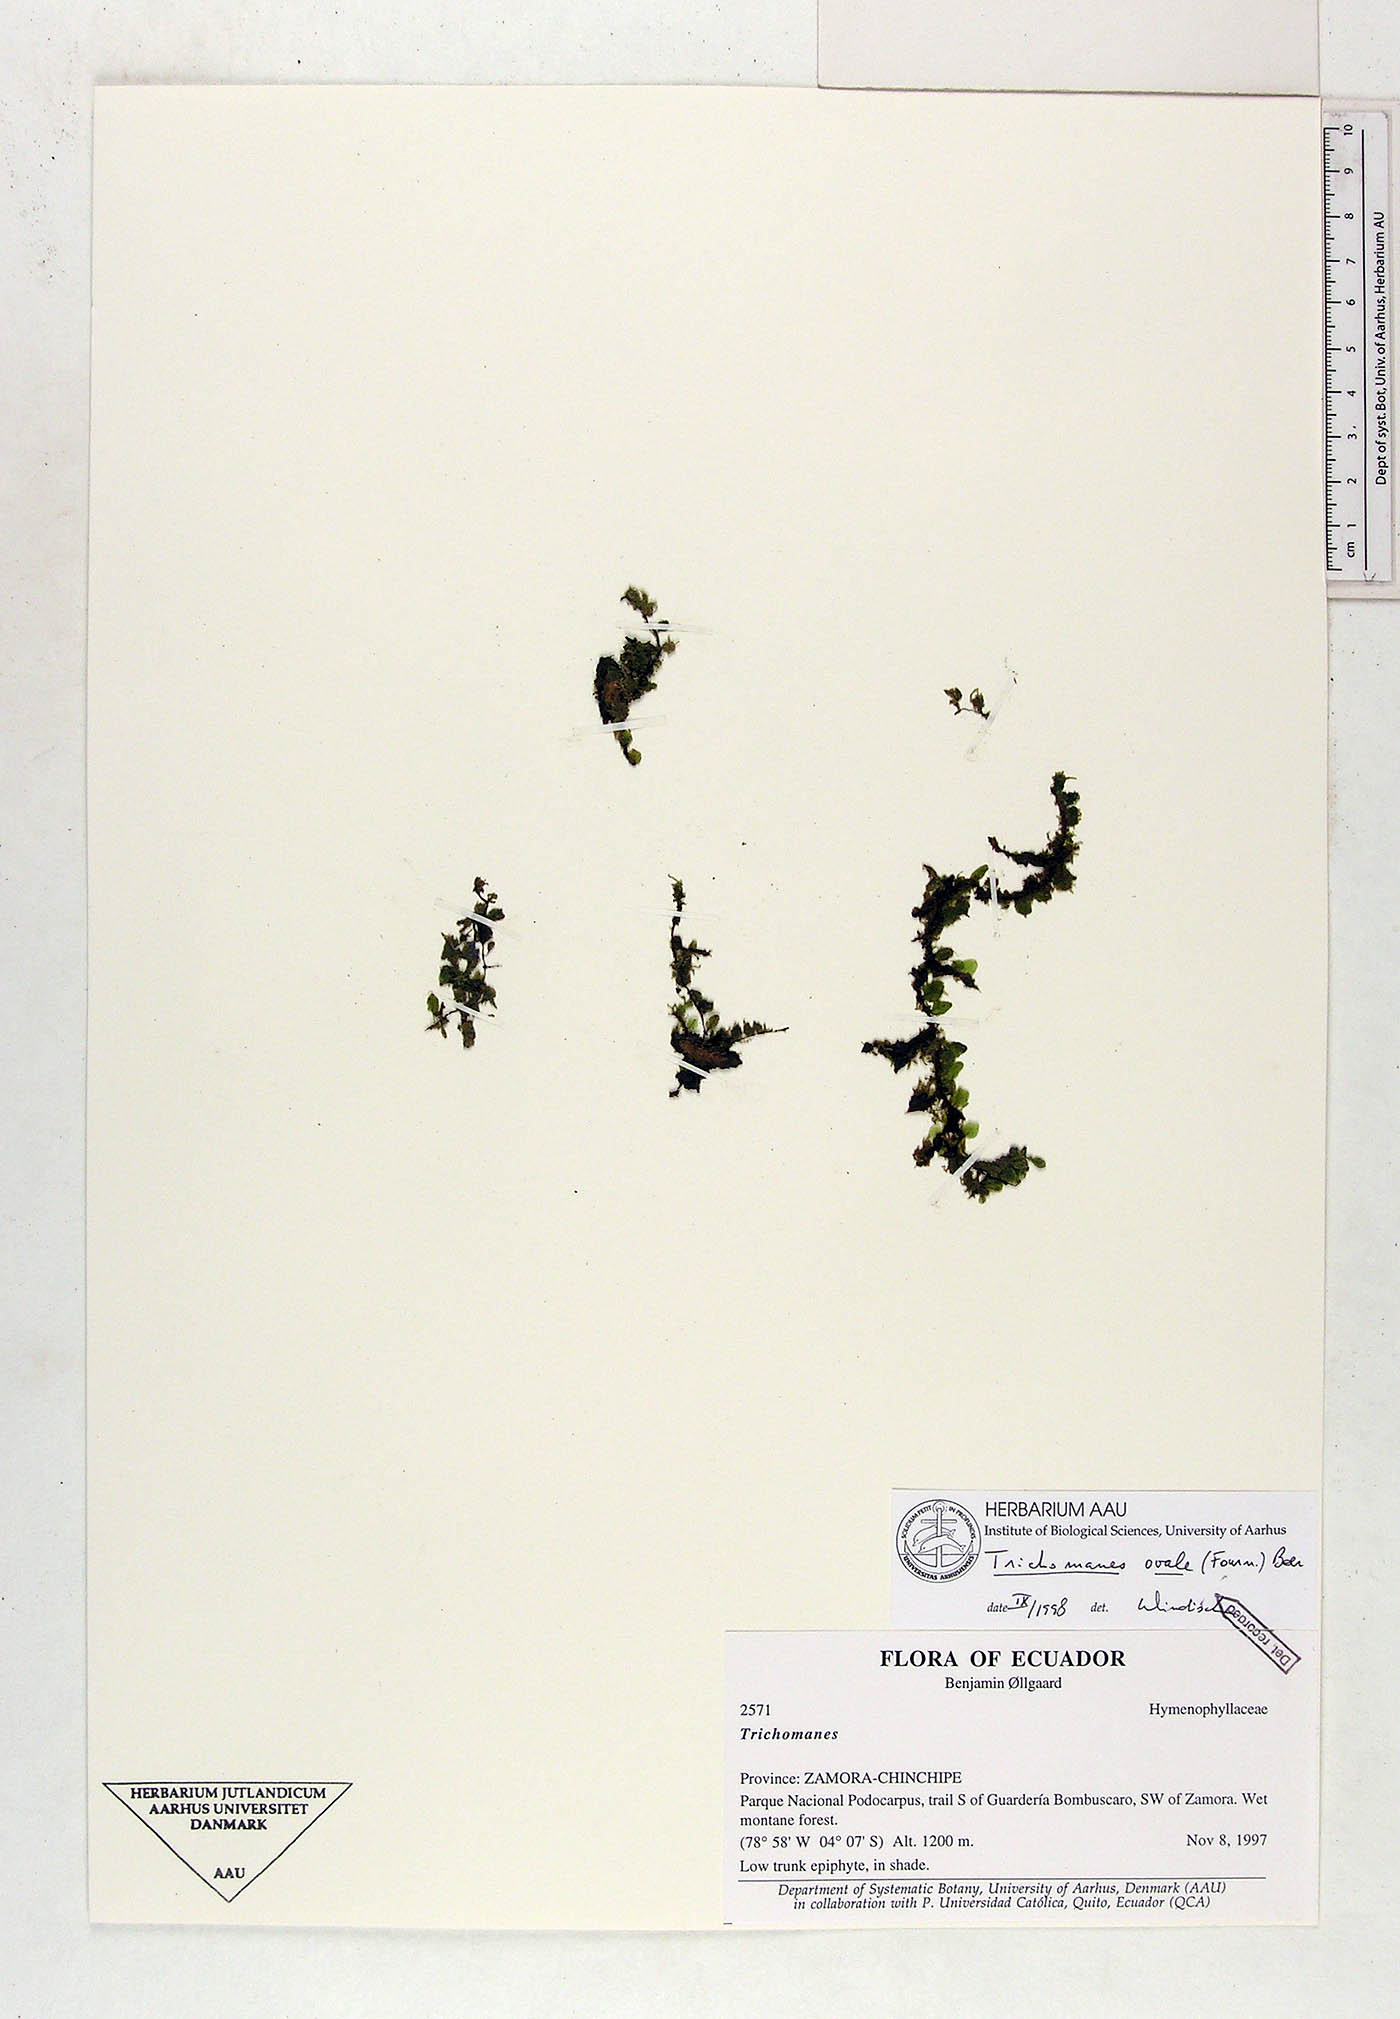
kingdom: Plantae
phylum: Tracheophyta
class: Polypodiopsida
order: Hymenophyllales
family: Hymenophyllaceae
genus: Didymoglossum
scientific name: Didymoglossum ovale
